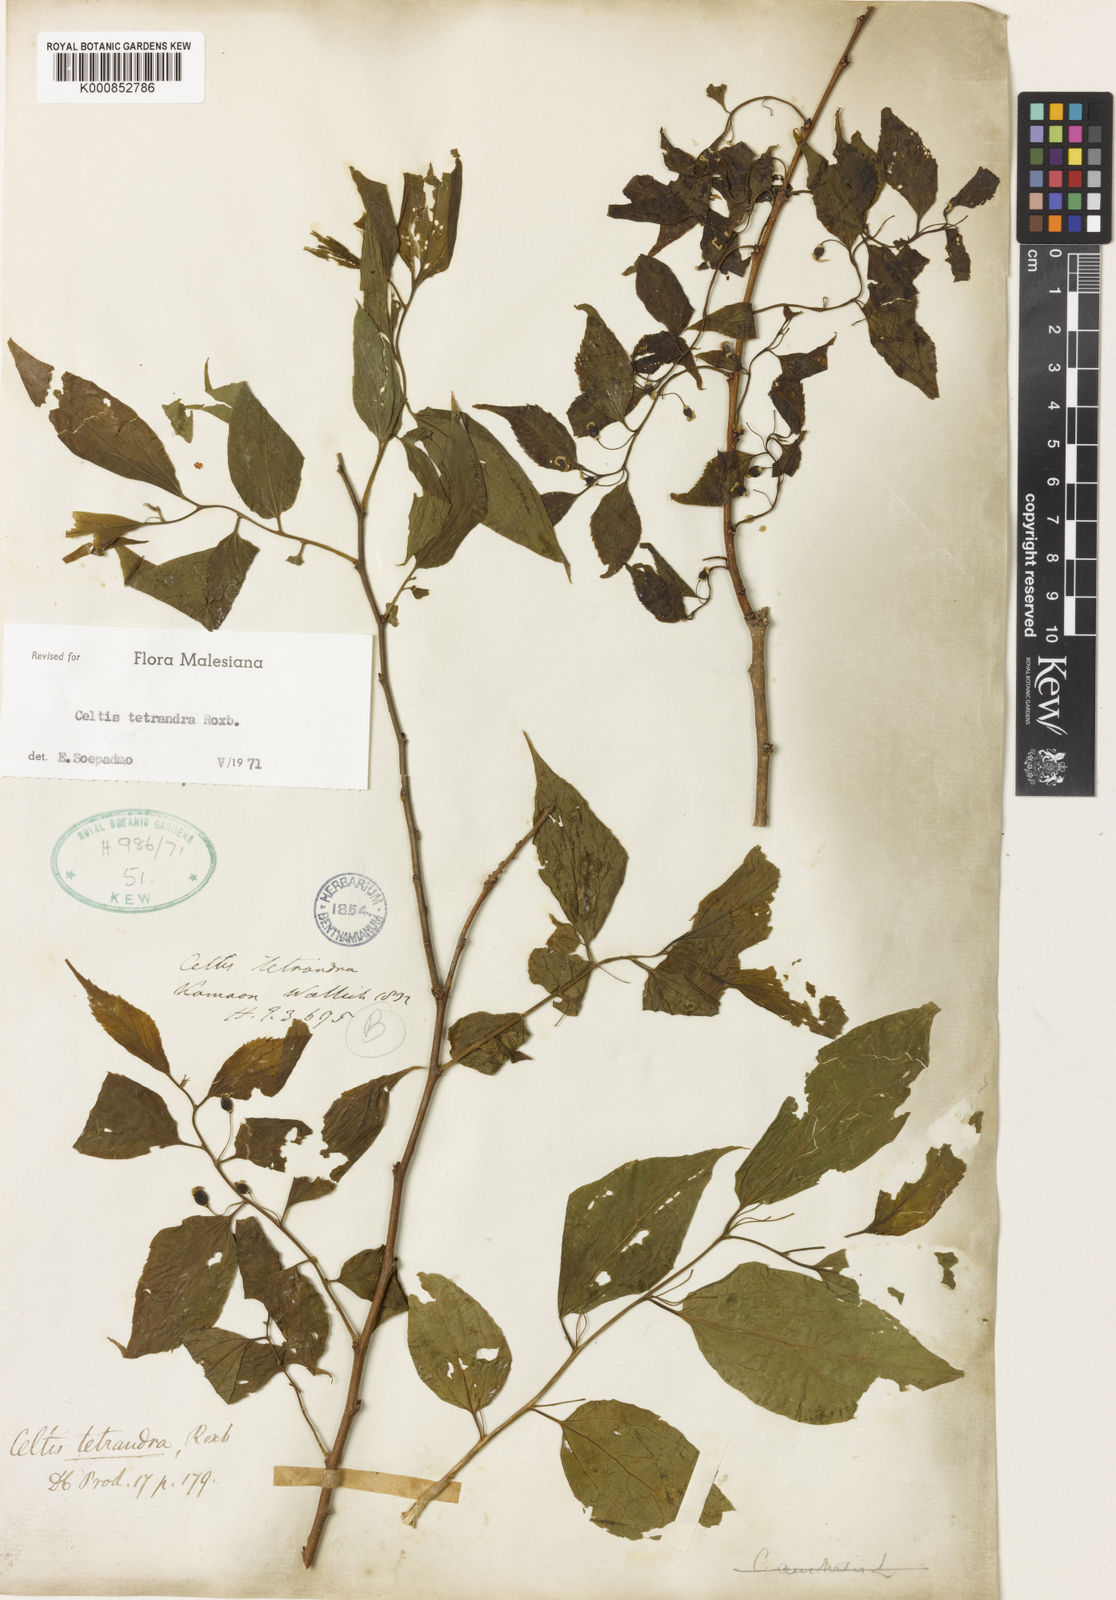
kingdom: Plantae
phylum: Tracheophyta
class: Magnoliopsida
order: Rosales
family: Cannabaceae
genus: Celtis
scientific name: Celtis tetrandra
